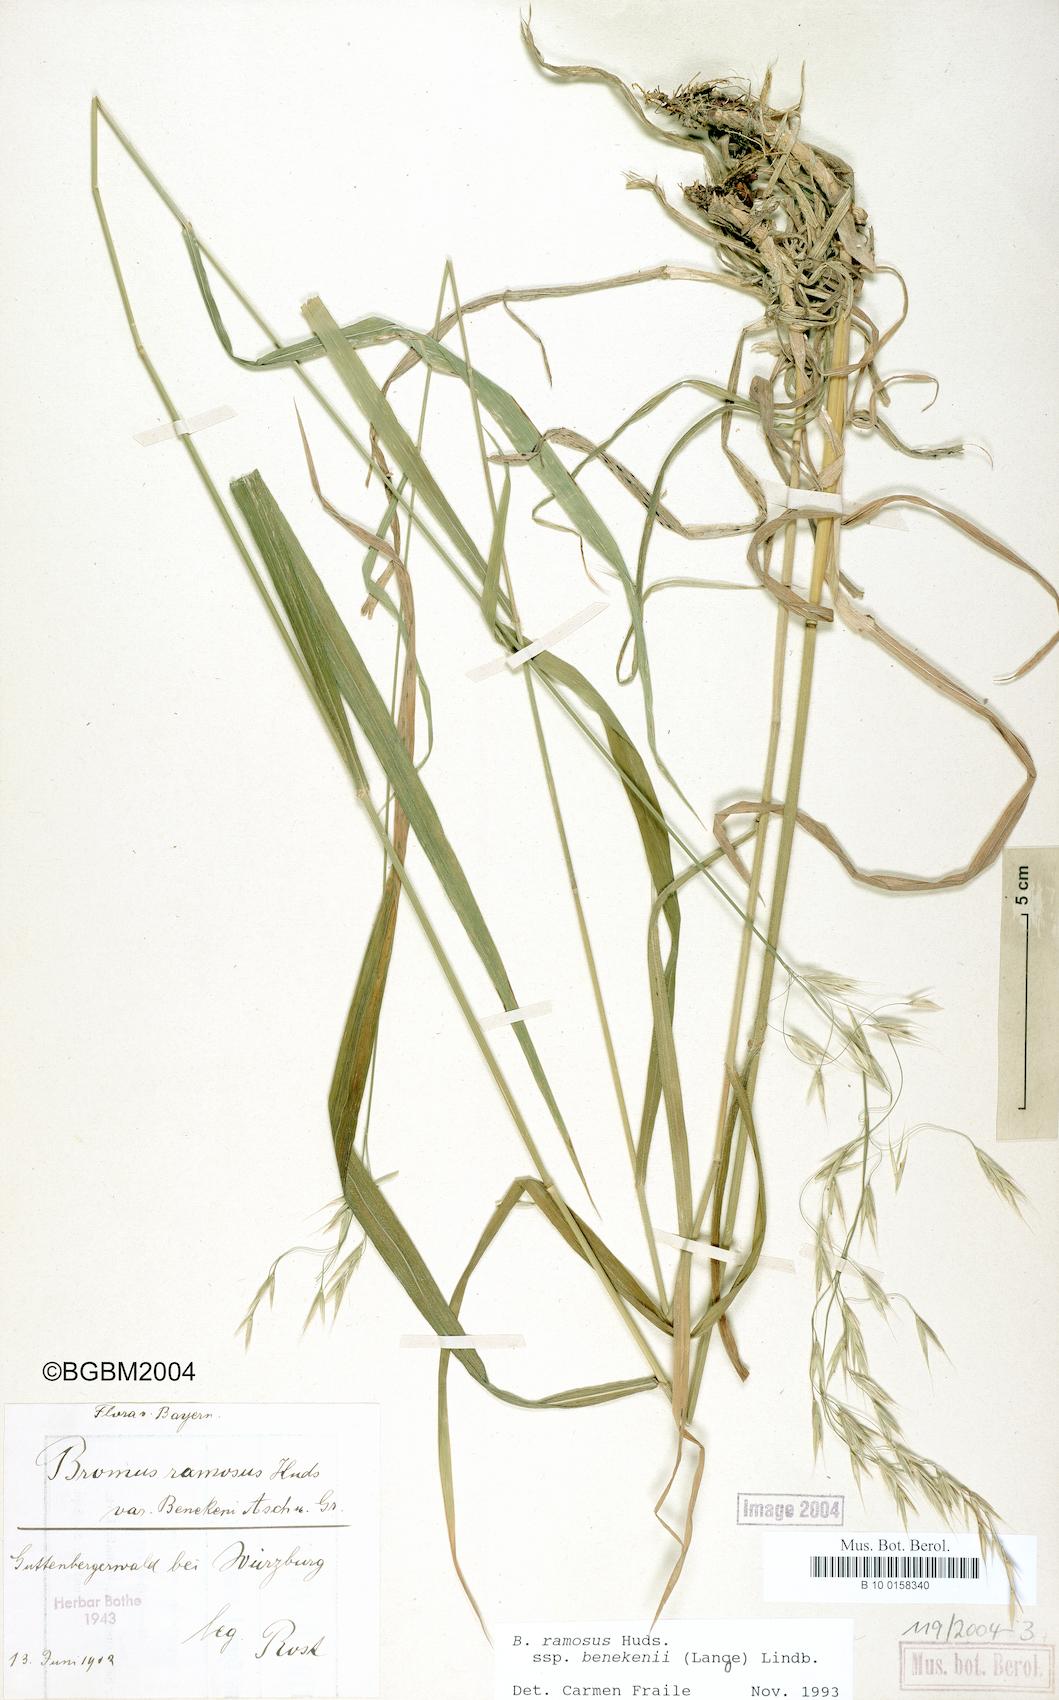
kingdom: Plantae
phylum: Tracheophyta
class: Liliopsida
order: Poales
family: Poaceae
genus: Bromus
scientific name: Bromus benekenii
